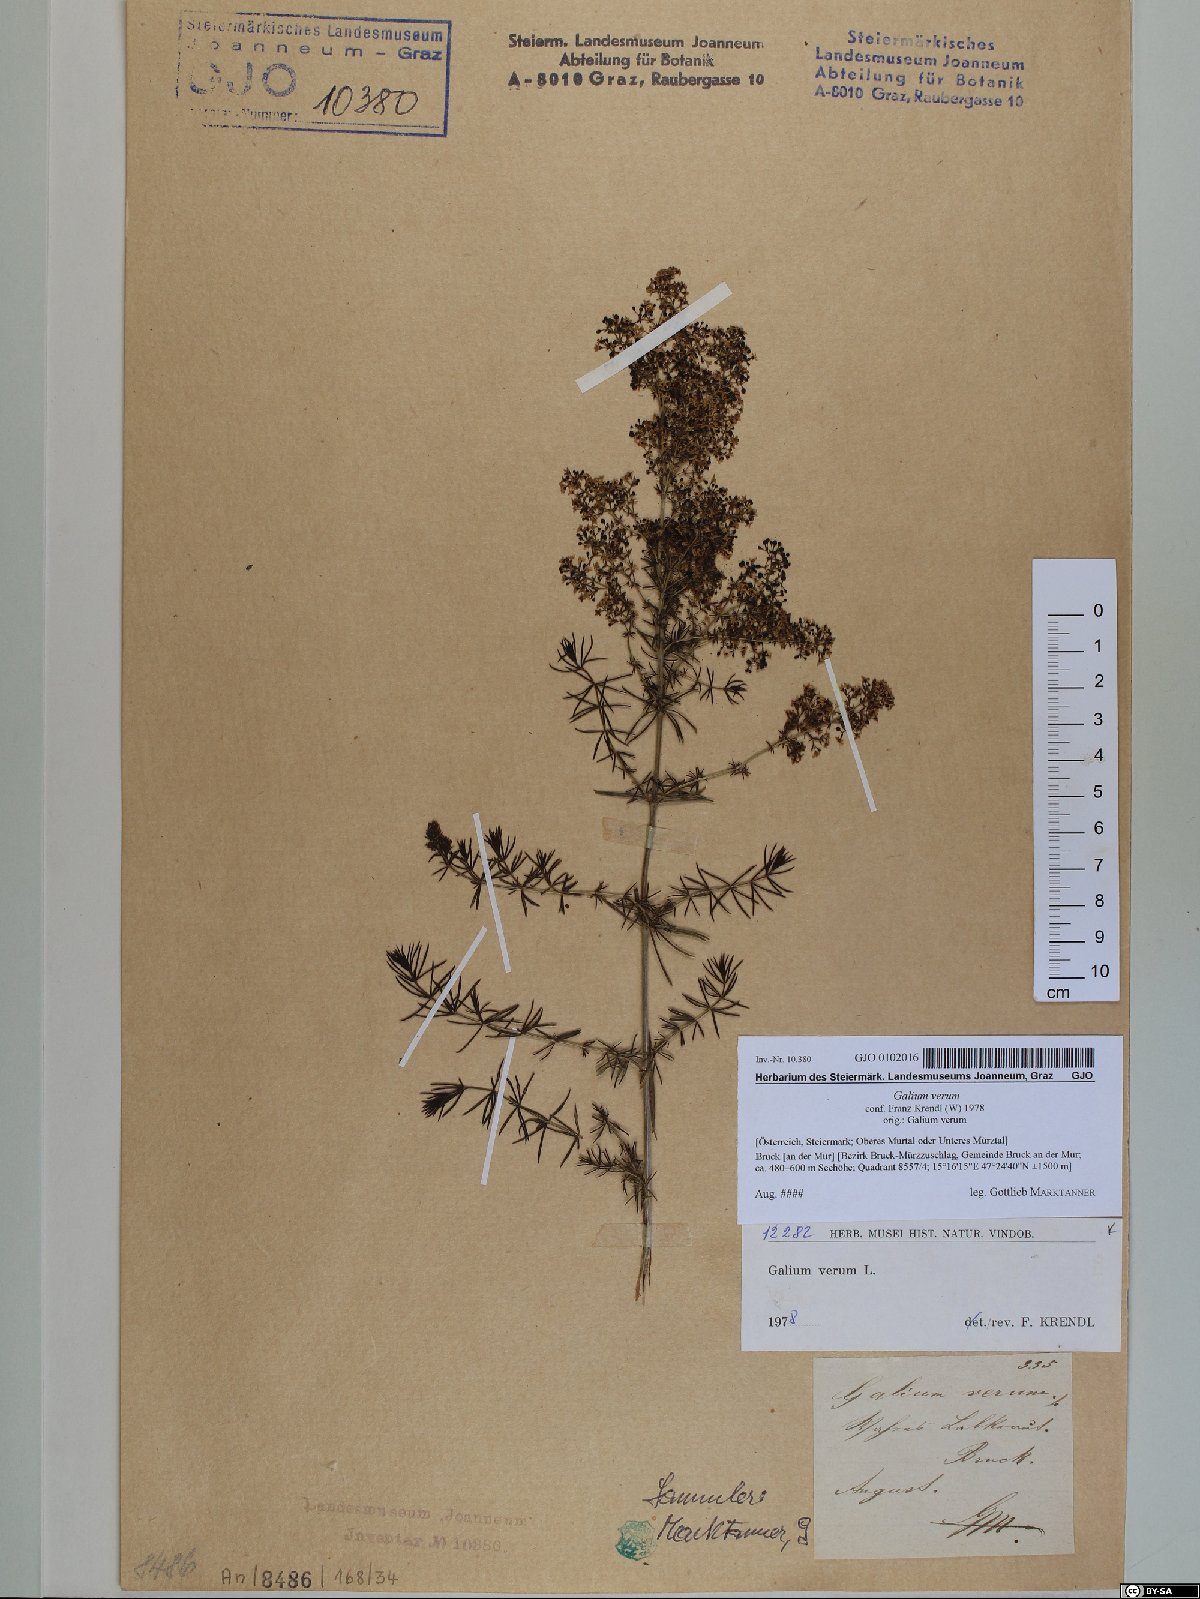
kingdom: Plantae
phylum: Tracheophyta
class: Magnoliopsida
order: Gentianales
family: Rubiaceae
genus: Galium
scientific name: Galium verum
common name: Lady's bedstraw
